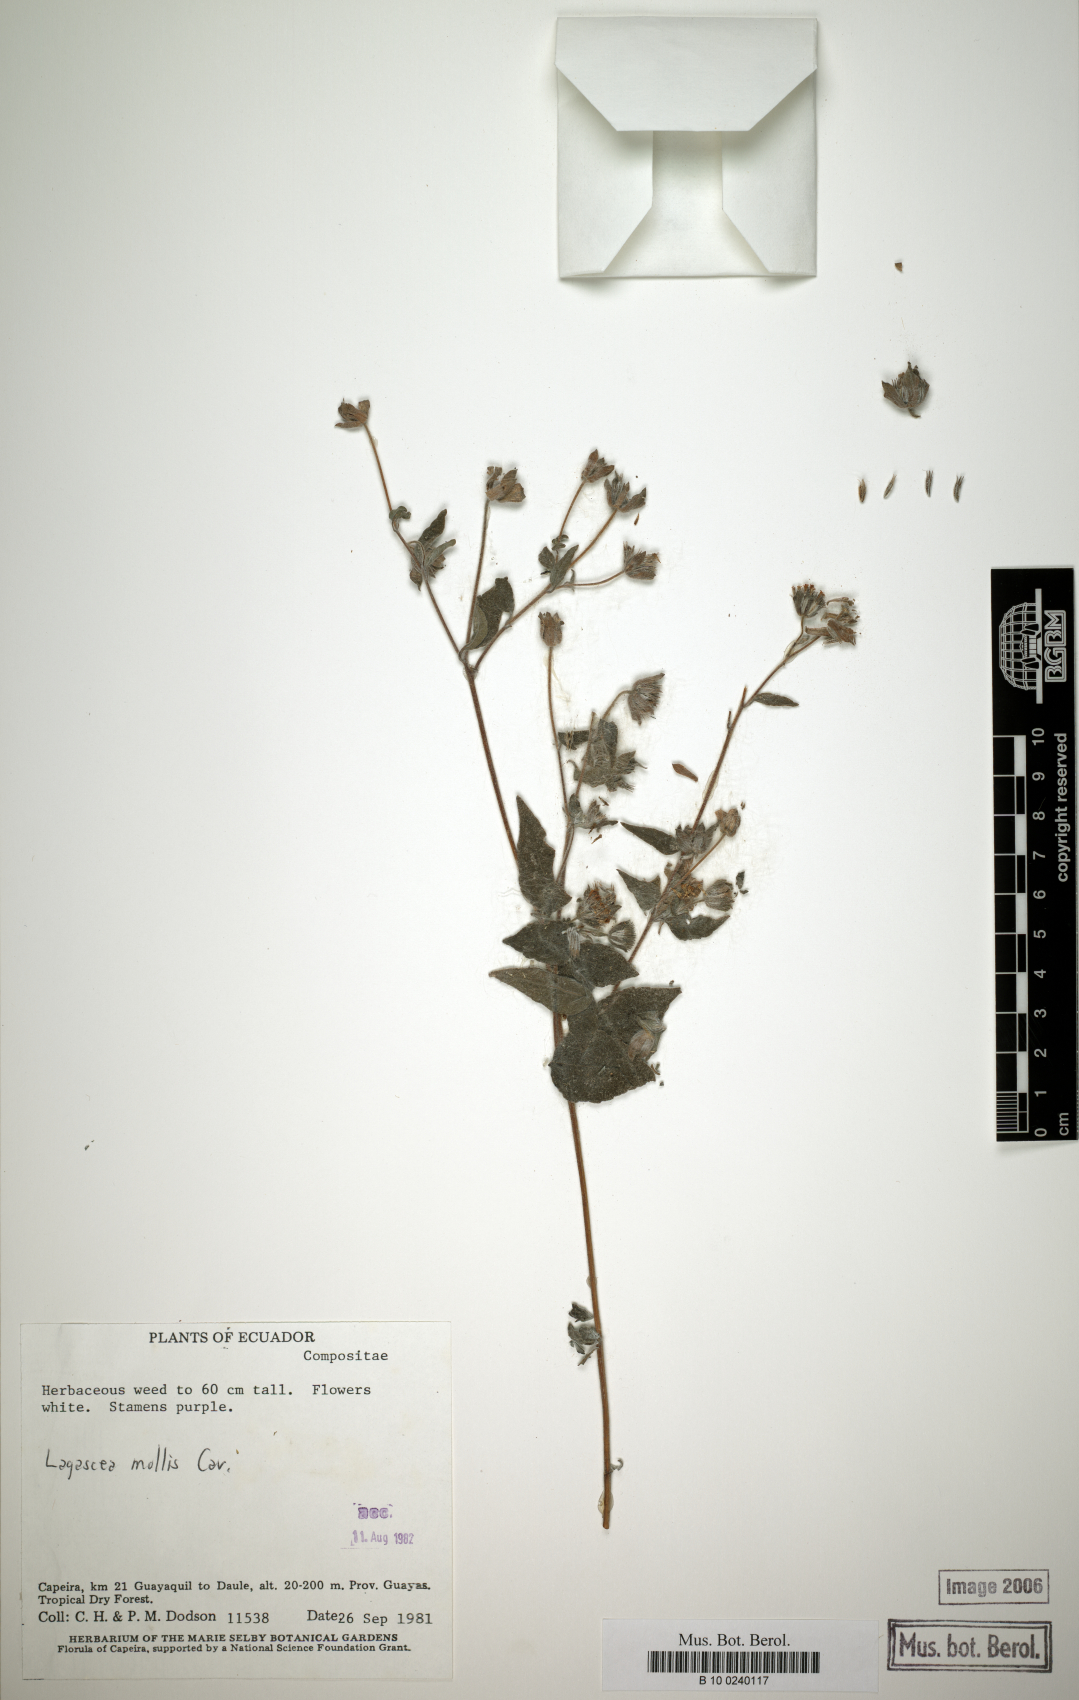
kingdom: Plantae
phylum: Tracheophyta
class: Magnoliopsida
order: Asterales
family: Asteraceae
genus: Lagascea
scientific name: Lagascea mollis
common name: Silkleaf
